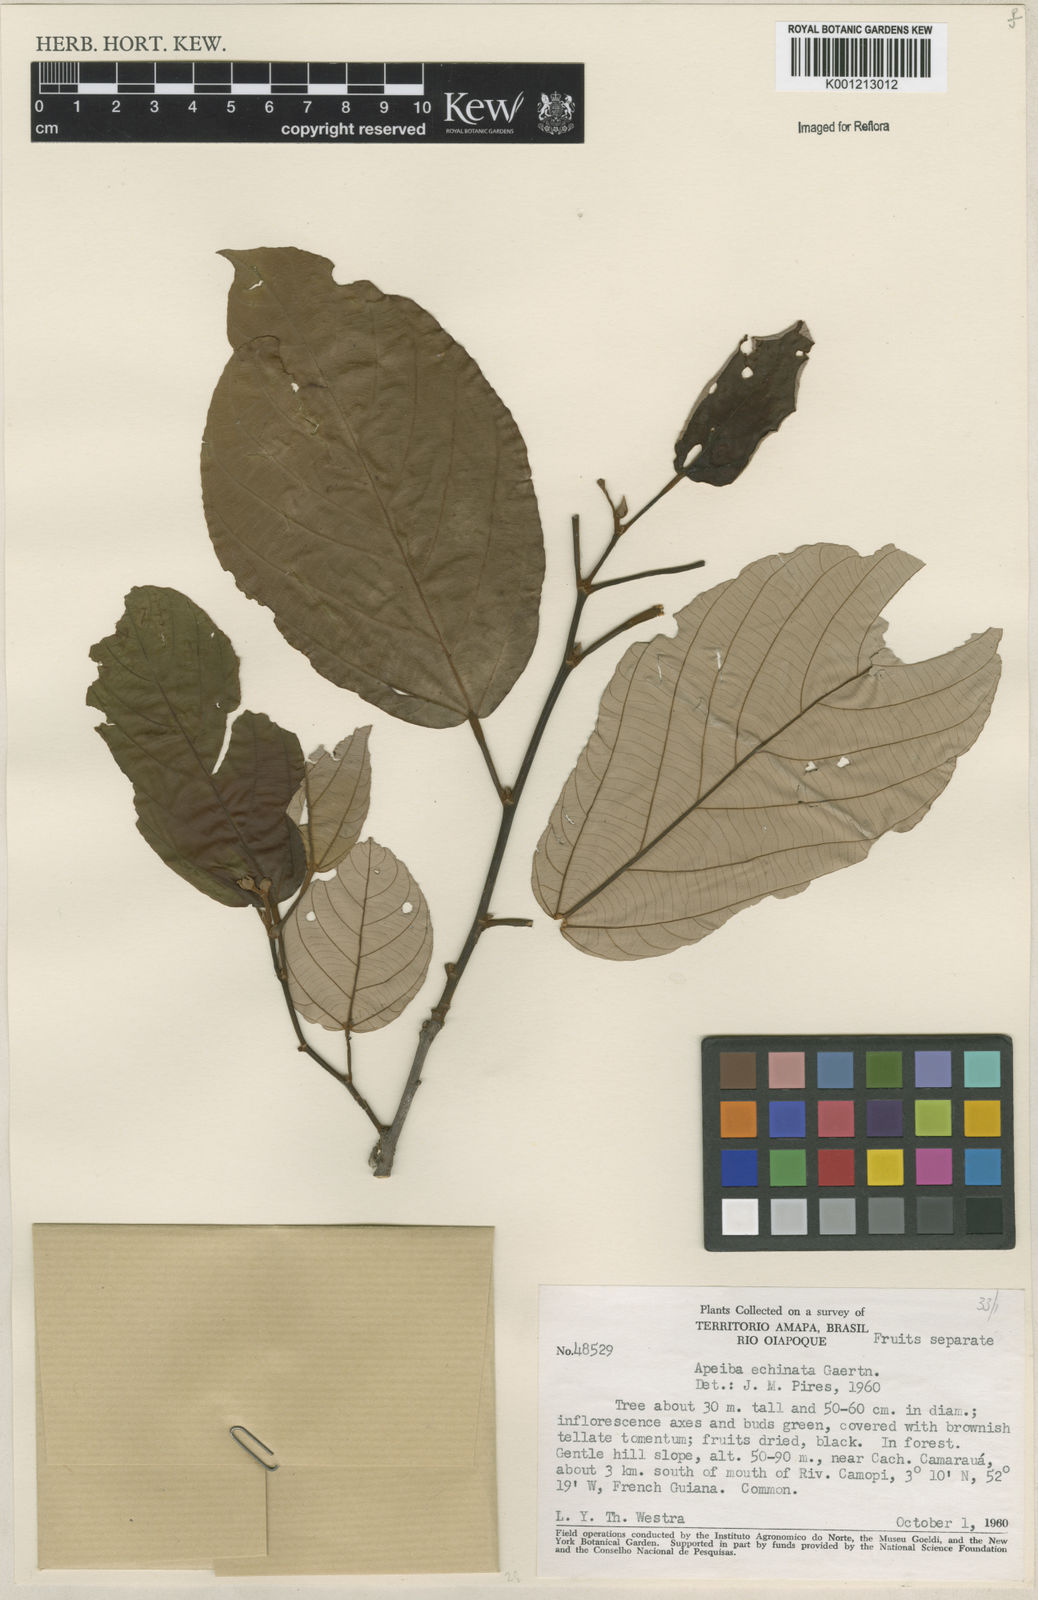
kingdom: Plantae
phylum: Tracheophyta
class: Magnoliopsida
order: Malvales
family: Malvaceae
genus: Apeiba
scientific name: Apeiba
